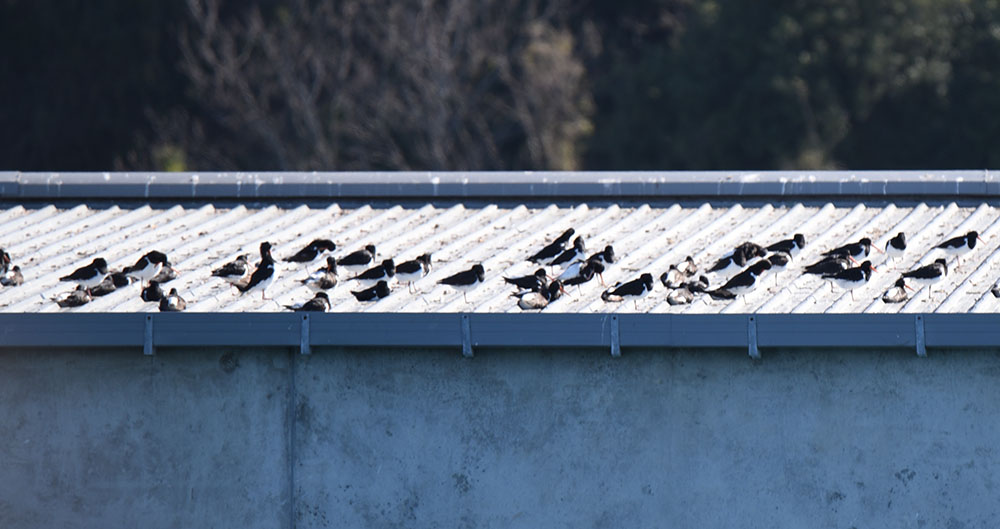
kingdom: Animalia
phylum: Chordata
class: Aves
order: Charadriiformes
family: Haematopodidae
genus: Haematopus
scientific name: Haematopus finschi
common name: South island oystercatcher
